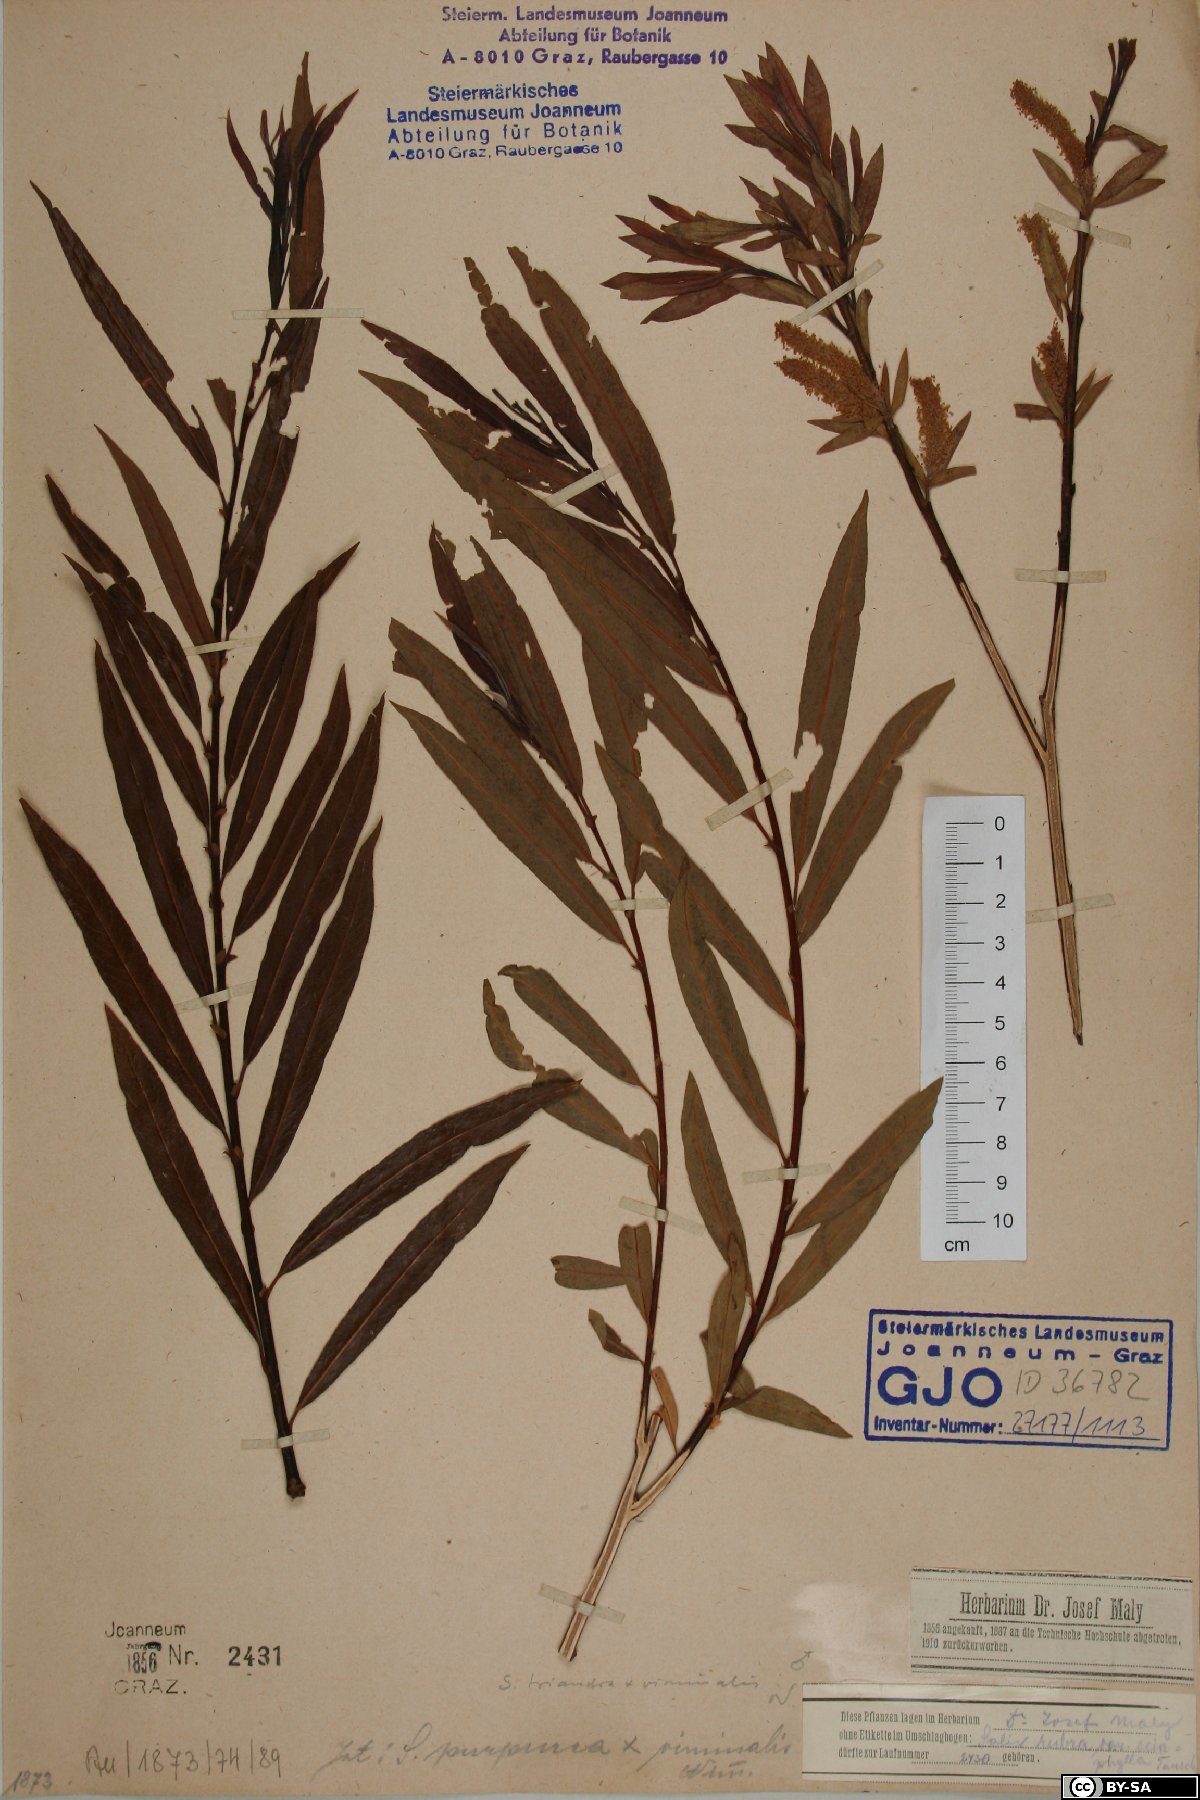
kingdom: Plantae
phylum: Tracheophyta
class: Magnoliopsida
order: Malpighiales
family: Salicaceae
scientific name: Salicaceae
